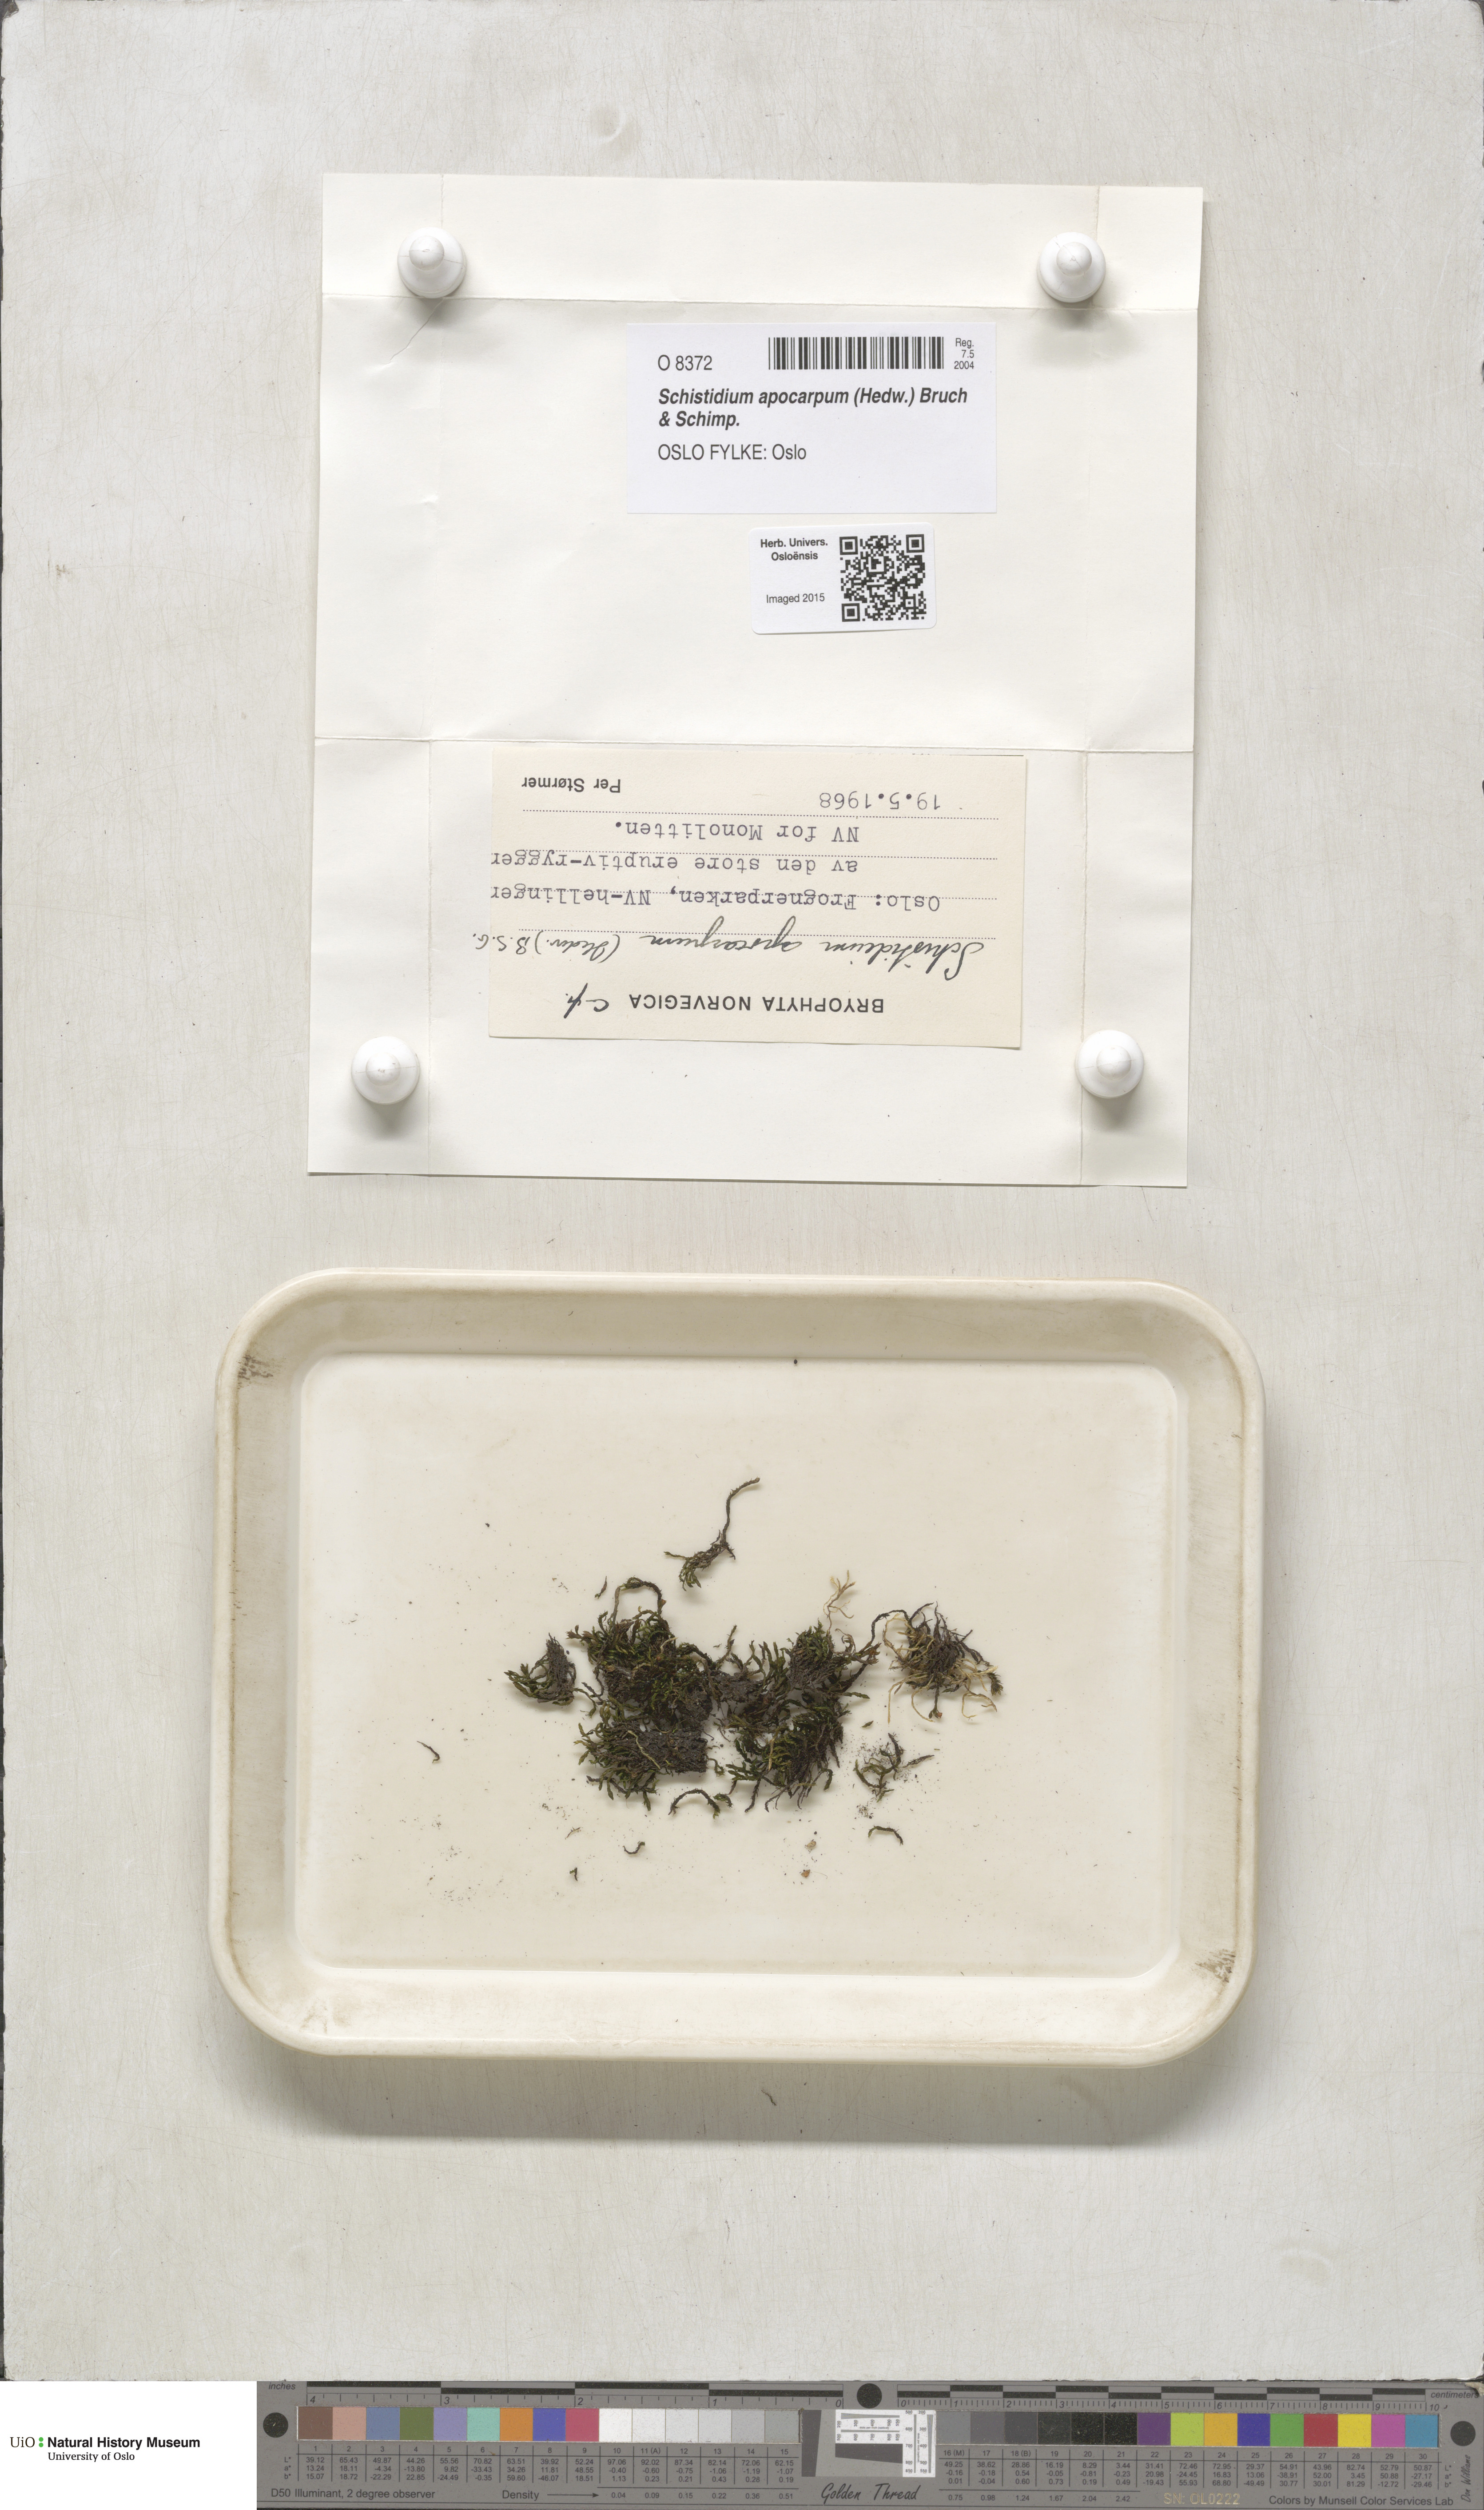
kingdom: Plantae
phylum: Bryophyta
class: Bryopsida
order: Grimmiales
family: Grimmiaceae
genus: Schistidium
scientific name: Schistidium apocarpum
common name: Radiate bloom moss
